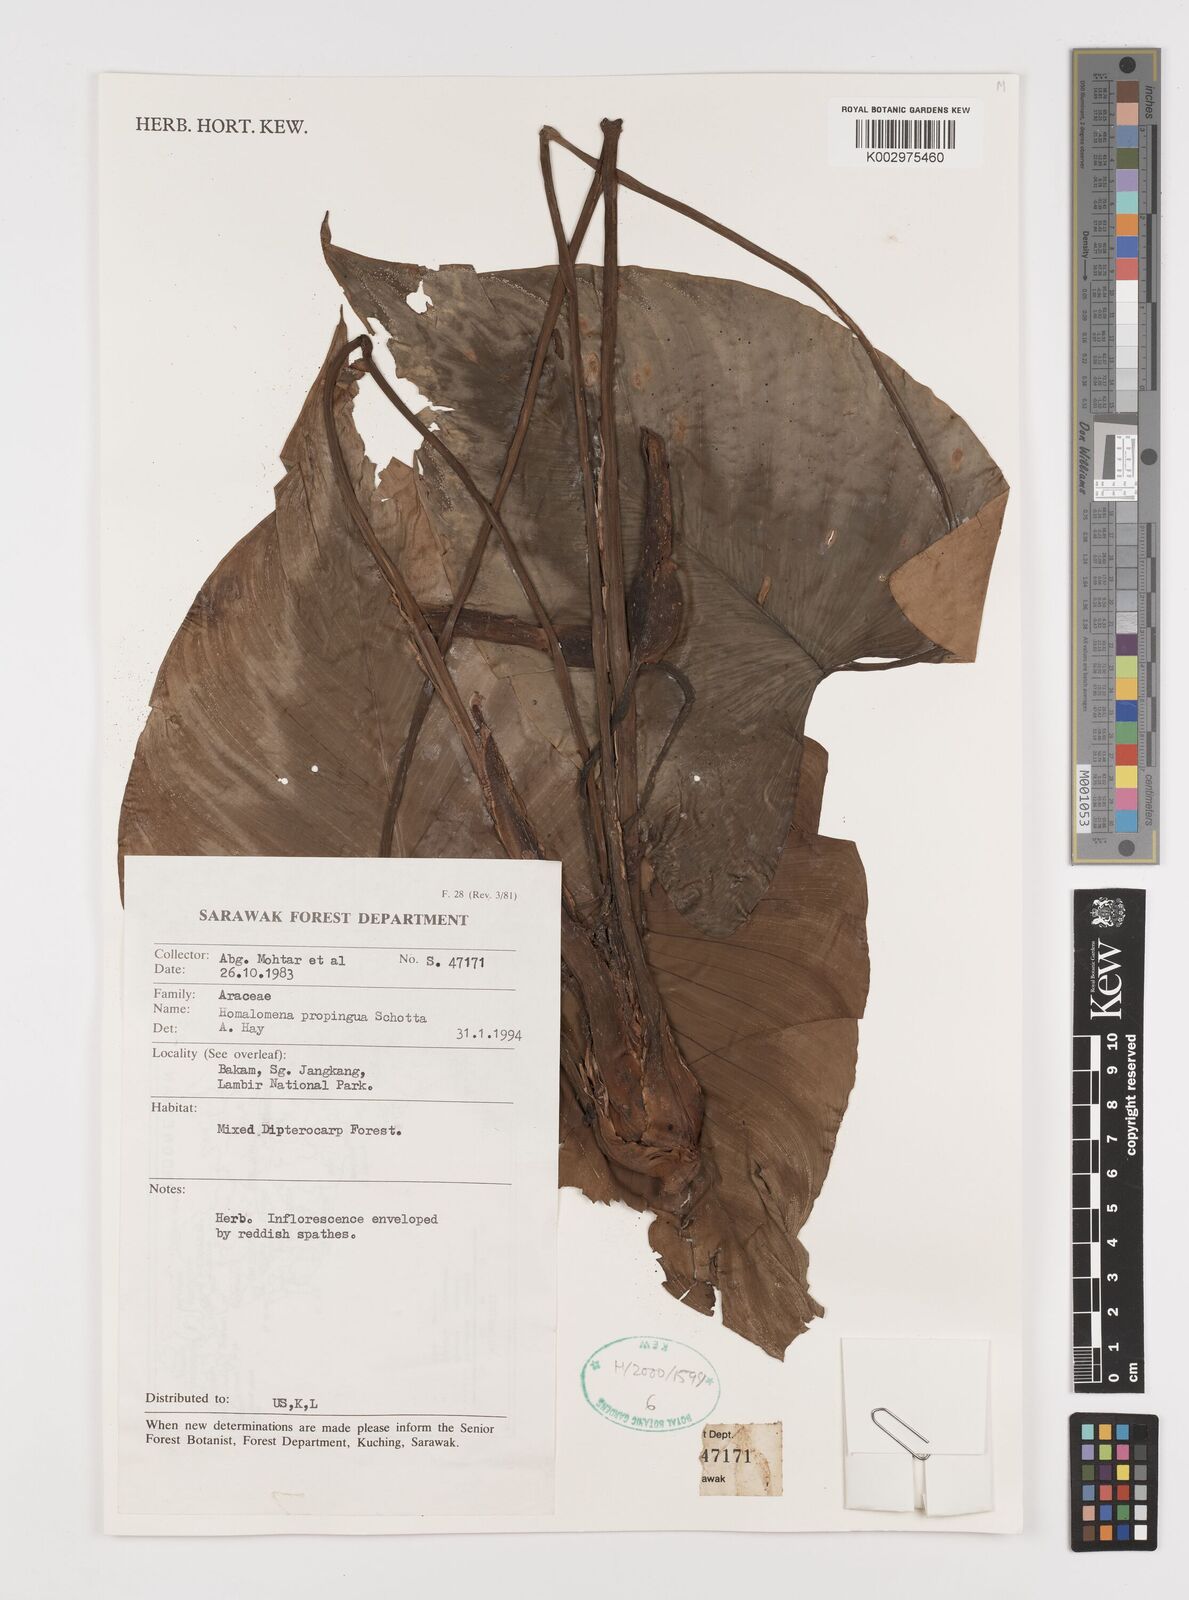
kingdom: Plantae
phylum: Tracheophyta
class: Liliopsida
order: Alismatales
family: Araceae
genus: Homalomena
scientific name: Homalomena humilis
